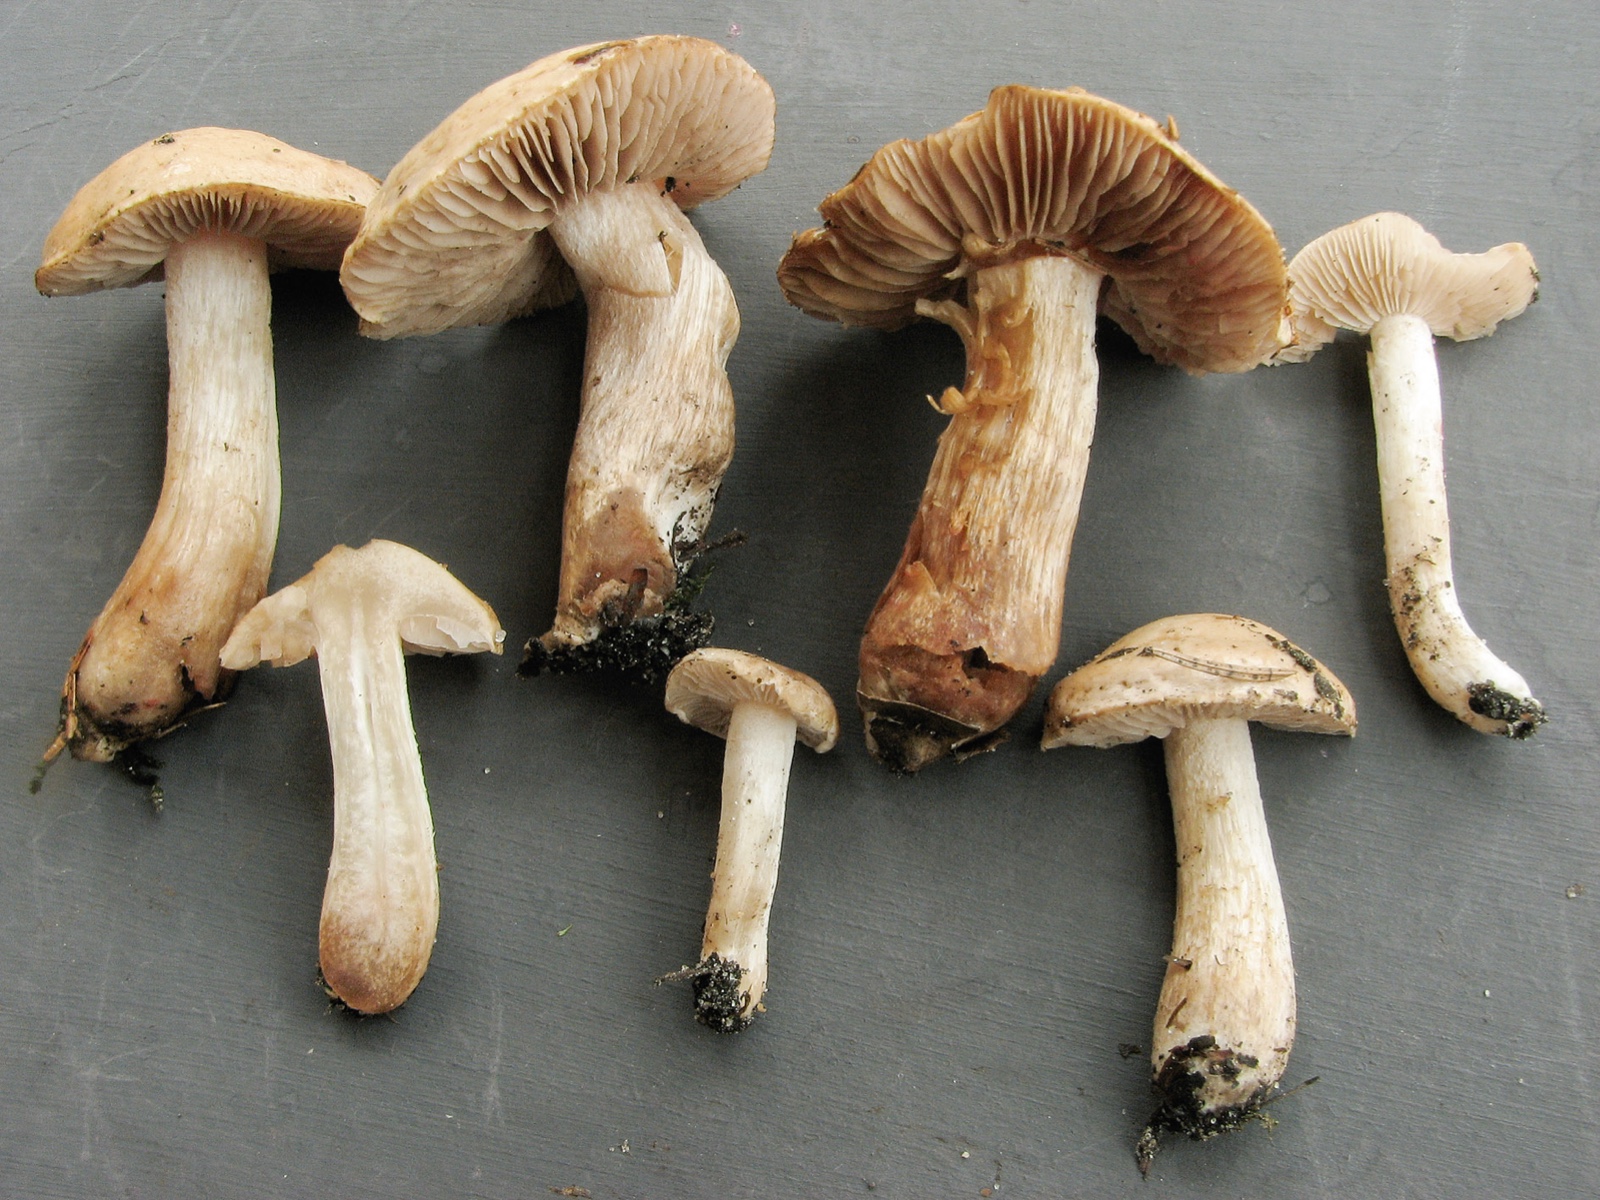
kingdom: Fungi
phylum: Basidiomycota
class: Agaricomycetes
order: Agaricales
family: Hymenogastraceae
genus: Hebeloma
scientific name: Hebeloma aestivale
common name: sommer-tåreblad
